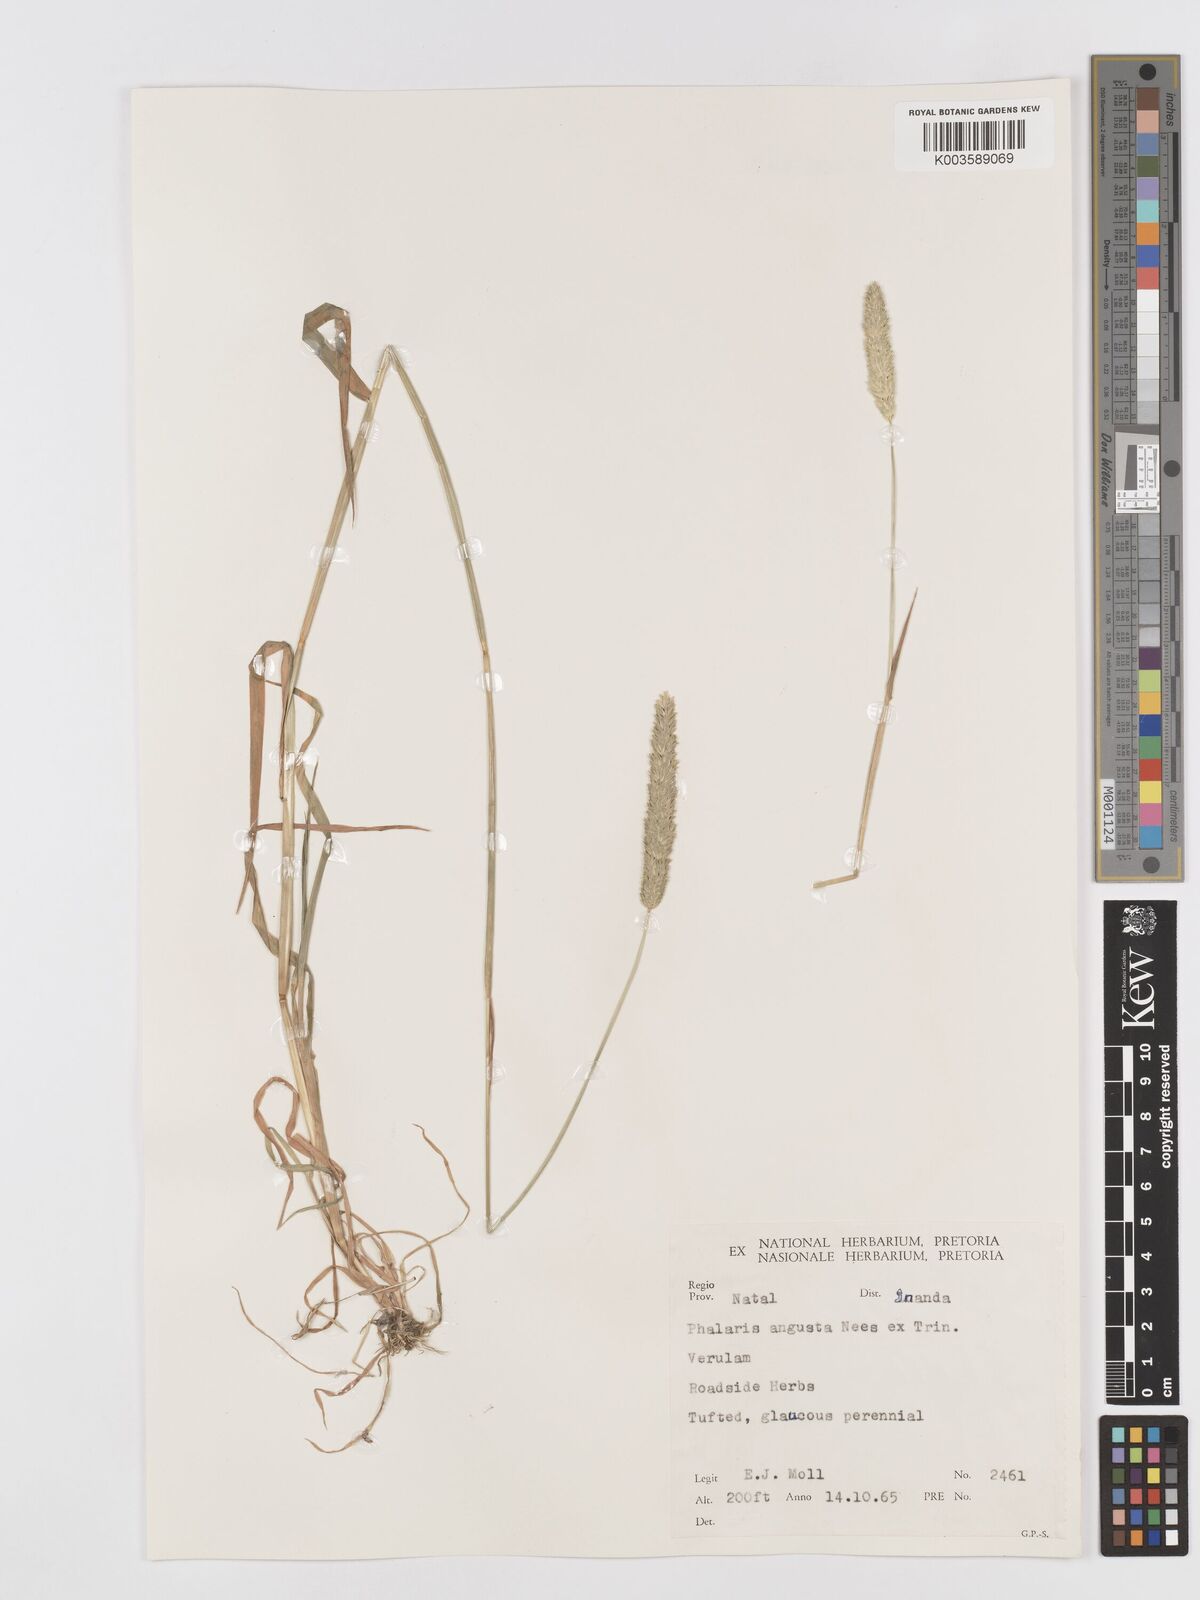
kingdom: Plantae
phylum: Tracheophyta
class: Liliopsida
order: Poales
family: Poaceae
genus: Phalaris
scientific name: Phalaris
